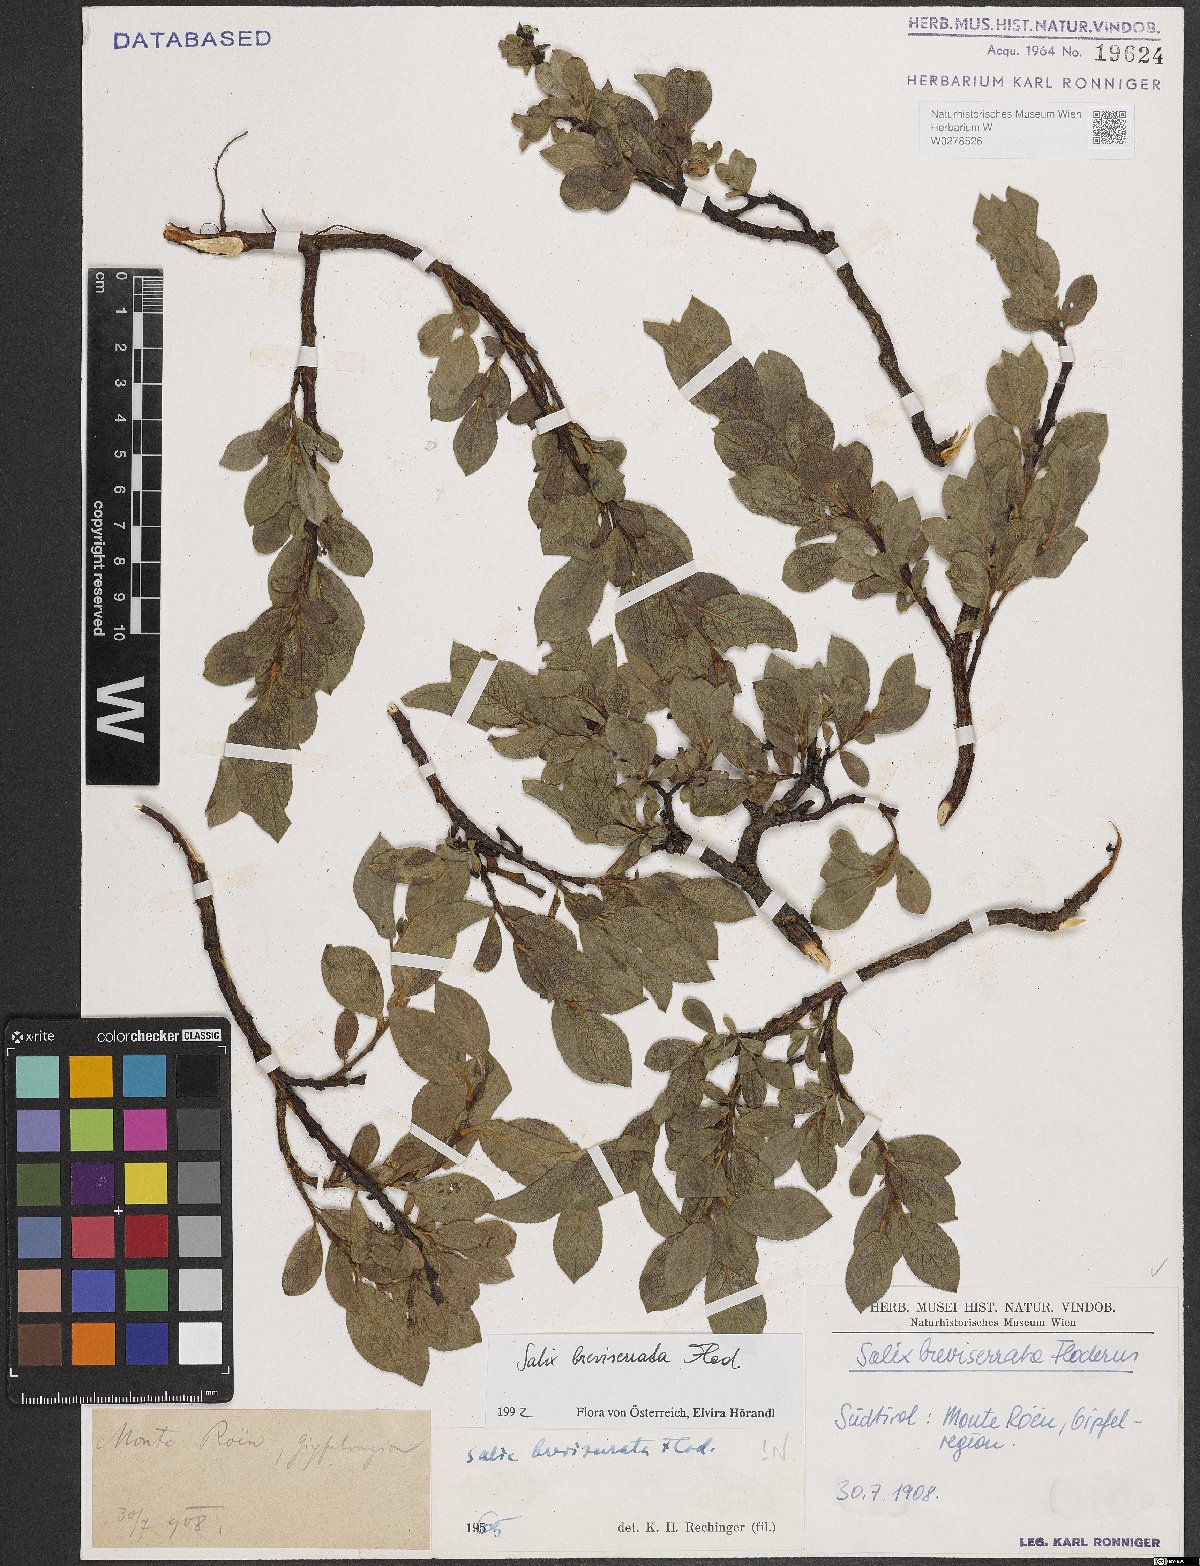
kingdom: Plantae
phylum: Tracheophyta
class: Magnoliopsida
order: Malpighiales
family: Salicaceae
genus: Salix
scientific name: Salix breviserrata
